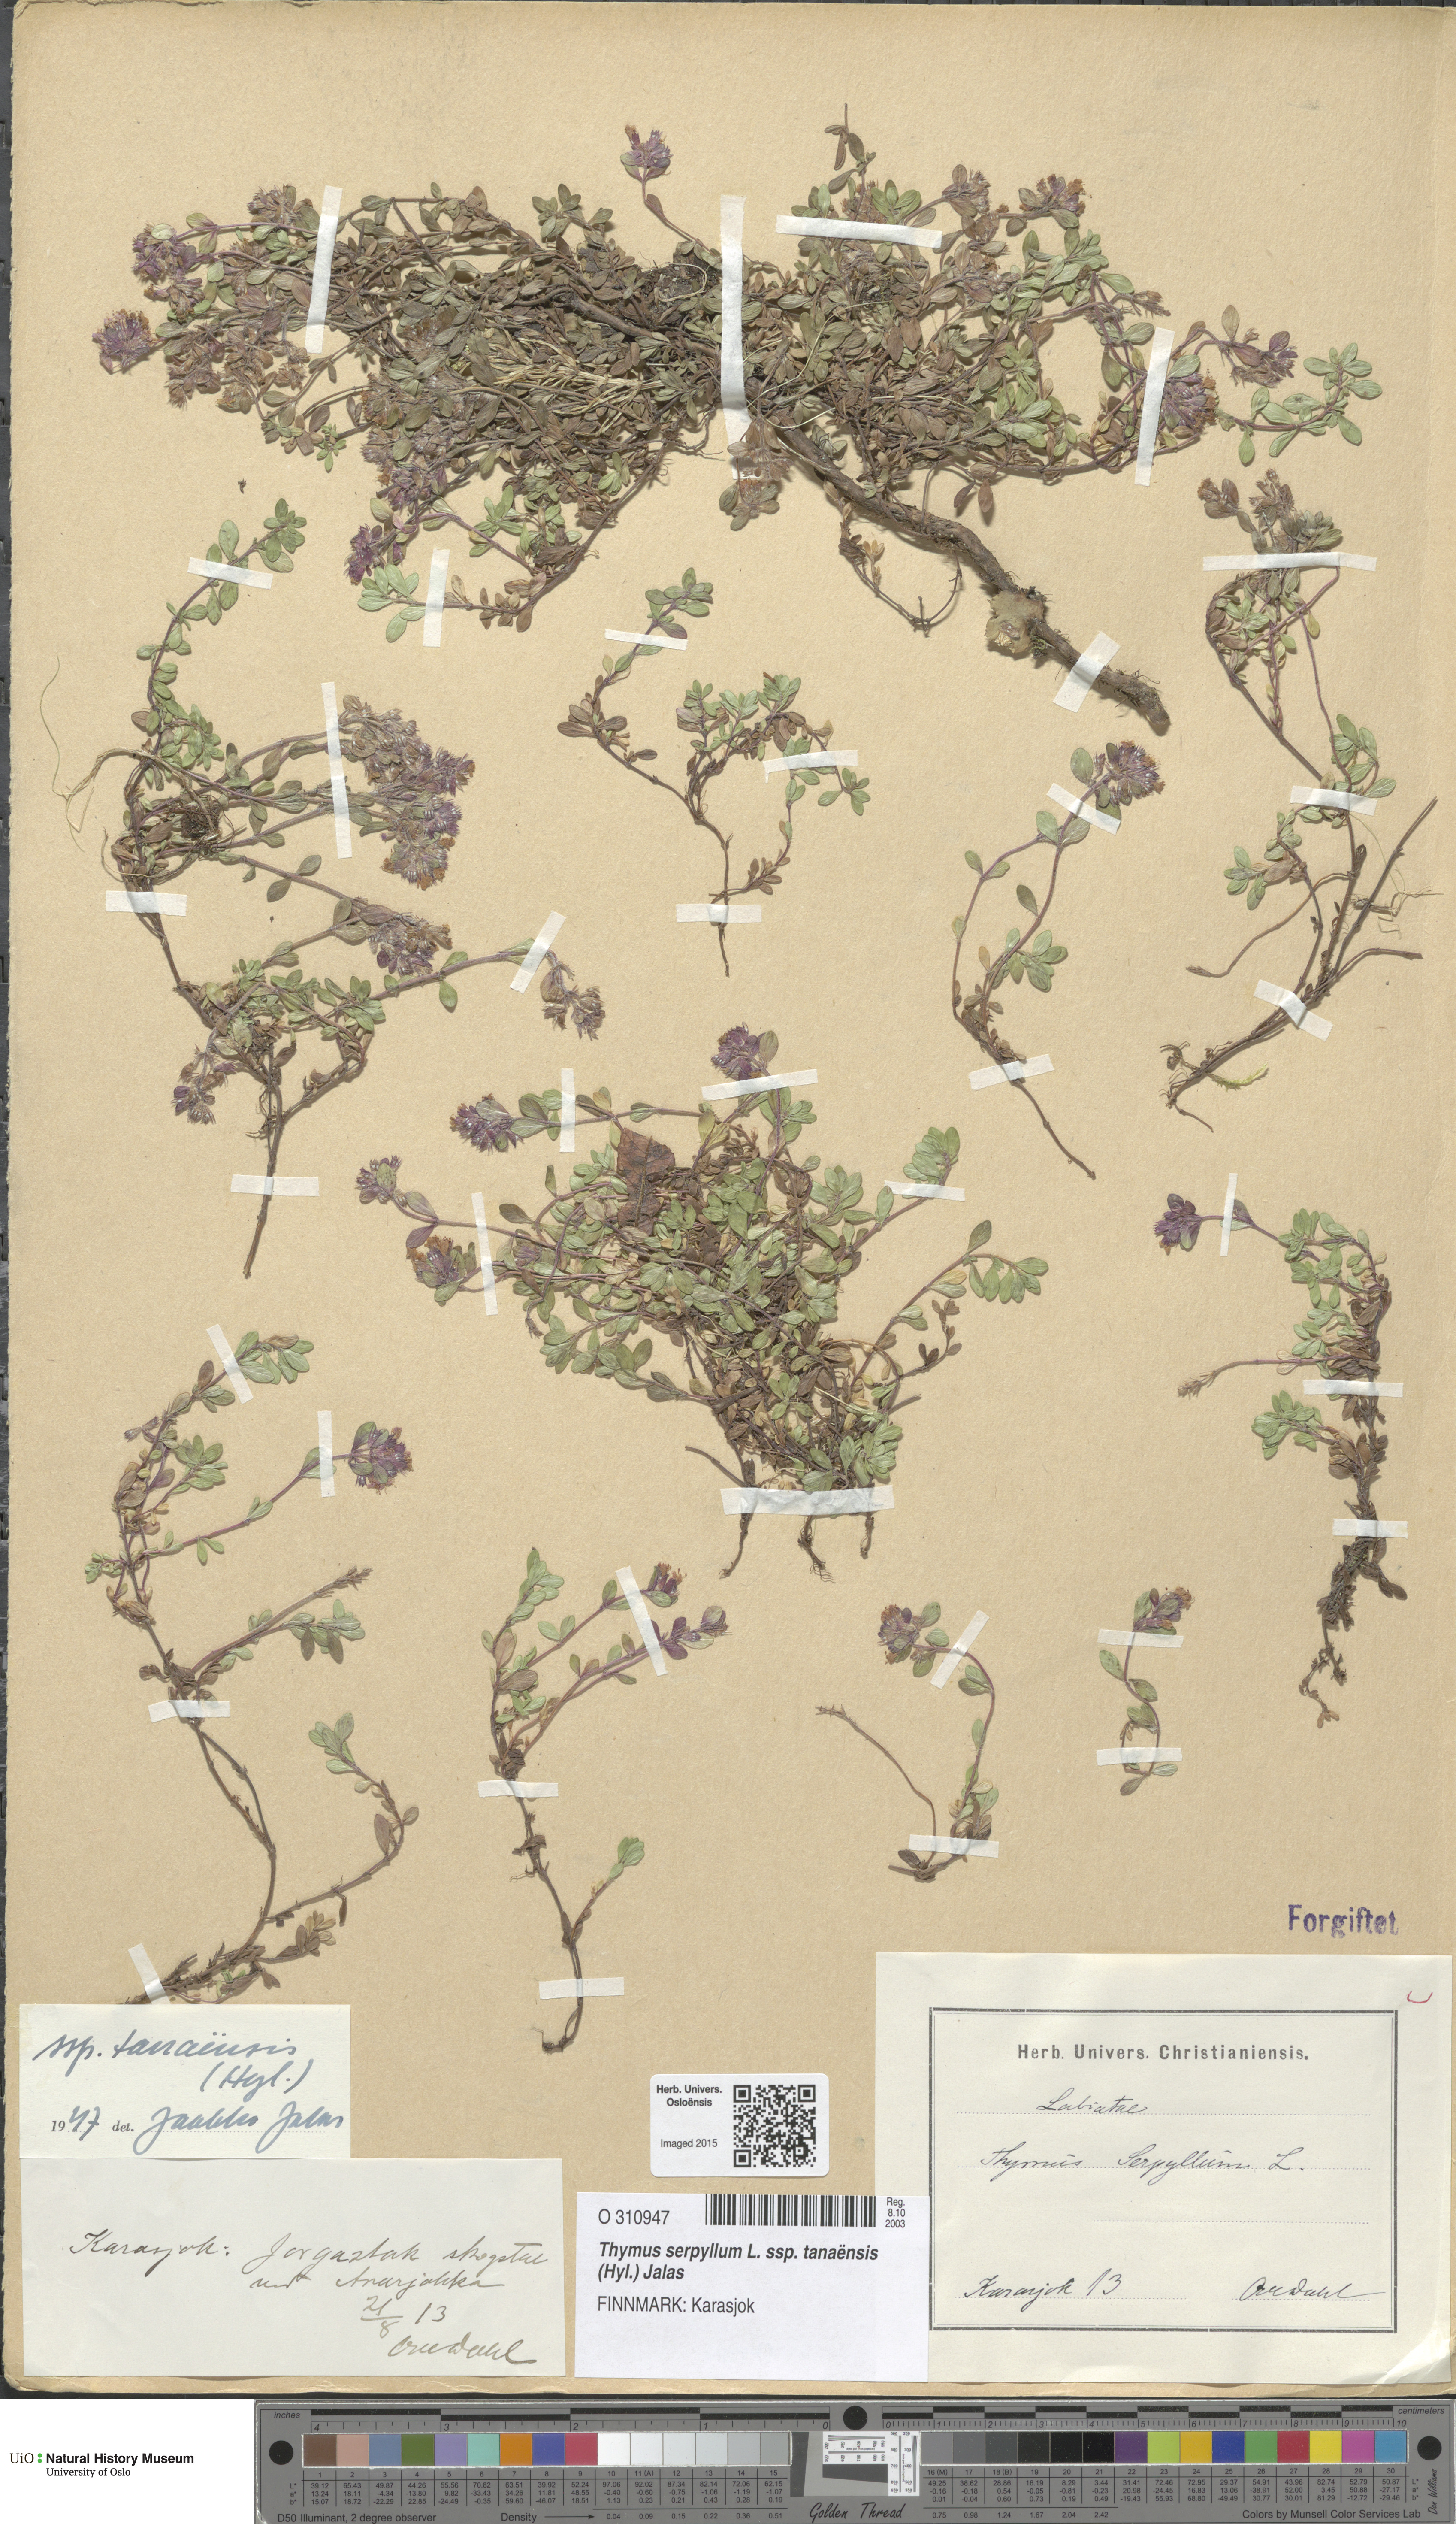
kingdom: Plantae
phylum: Tracheophyta
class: Magnoliopsida
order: Lamiales
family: Lamiaceae
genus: Thymus
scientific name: Thymus serpyllum
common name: Breckland thyme
